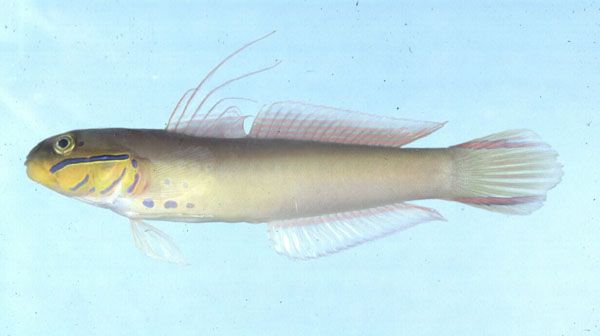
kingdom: Animalia
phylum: Chordata
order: Perciformes
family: Gobiidae
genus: Valenciennea
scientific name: Valenciennea strigata
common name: Blueband goby
